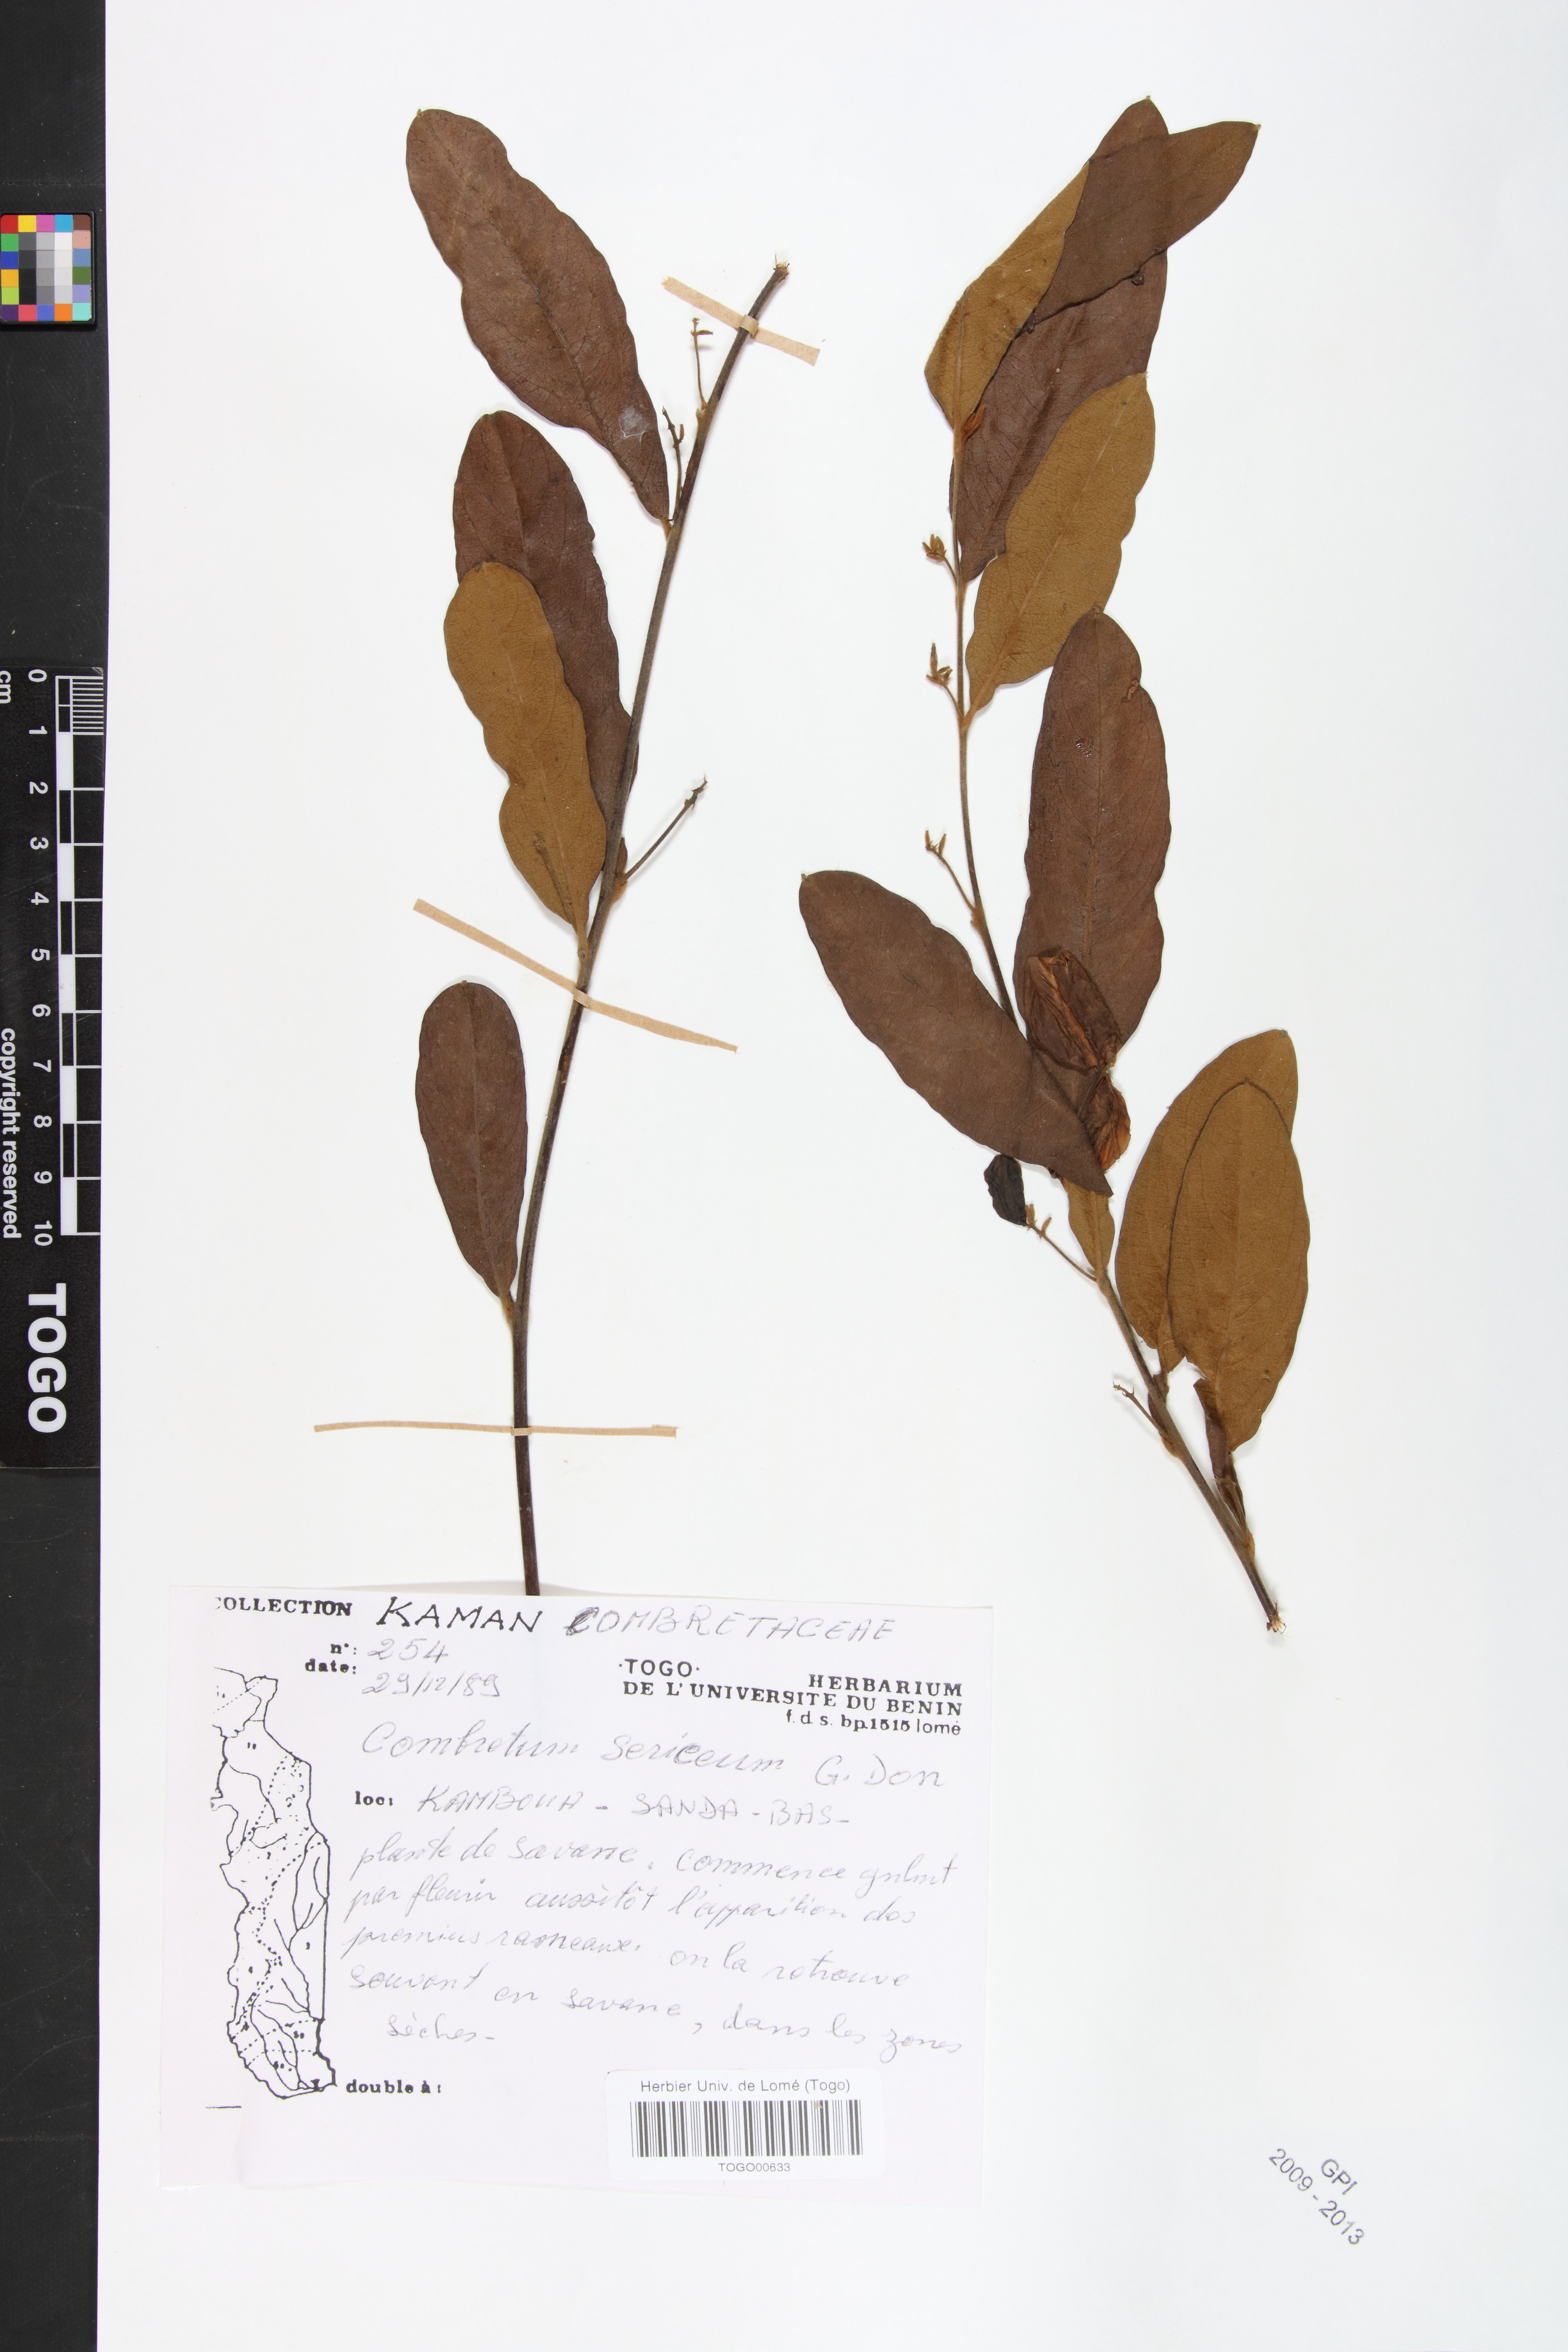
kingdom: Plantae
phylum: Tracheophyta
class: Magnoliopsida
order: Myrtales
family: Combretaceae
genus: Combretum
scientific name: Combretum sericeum
